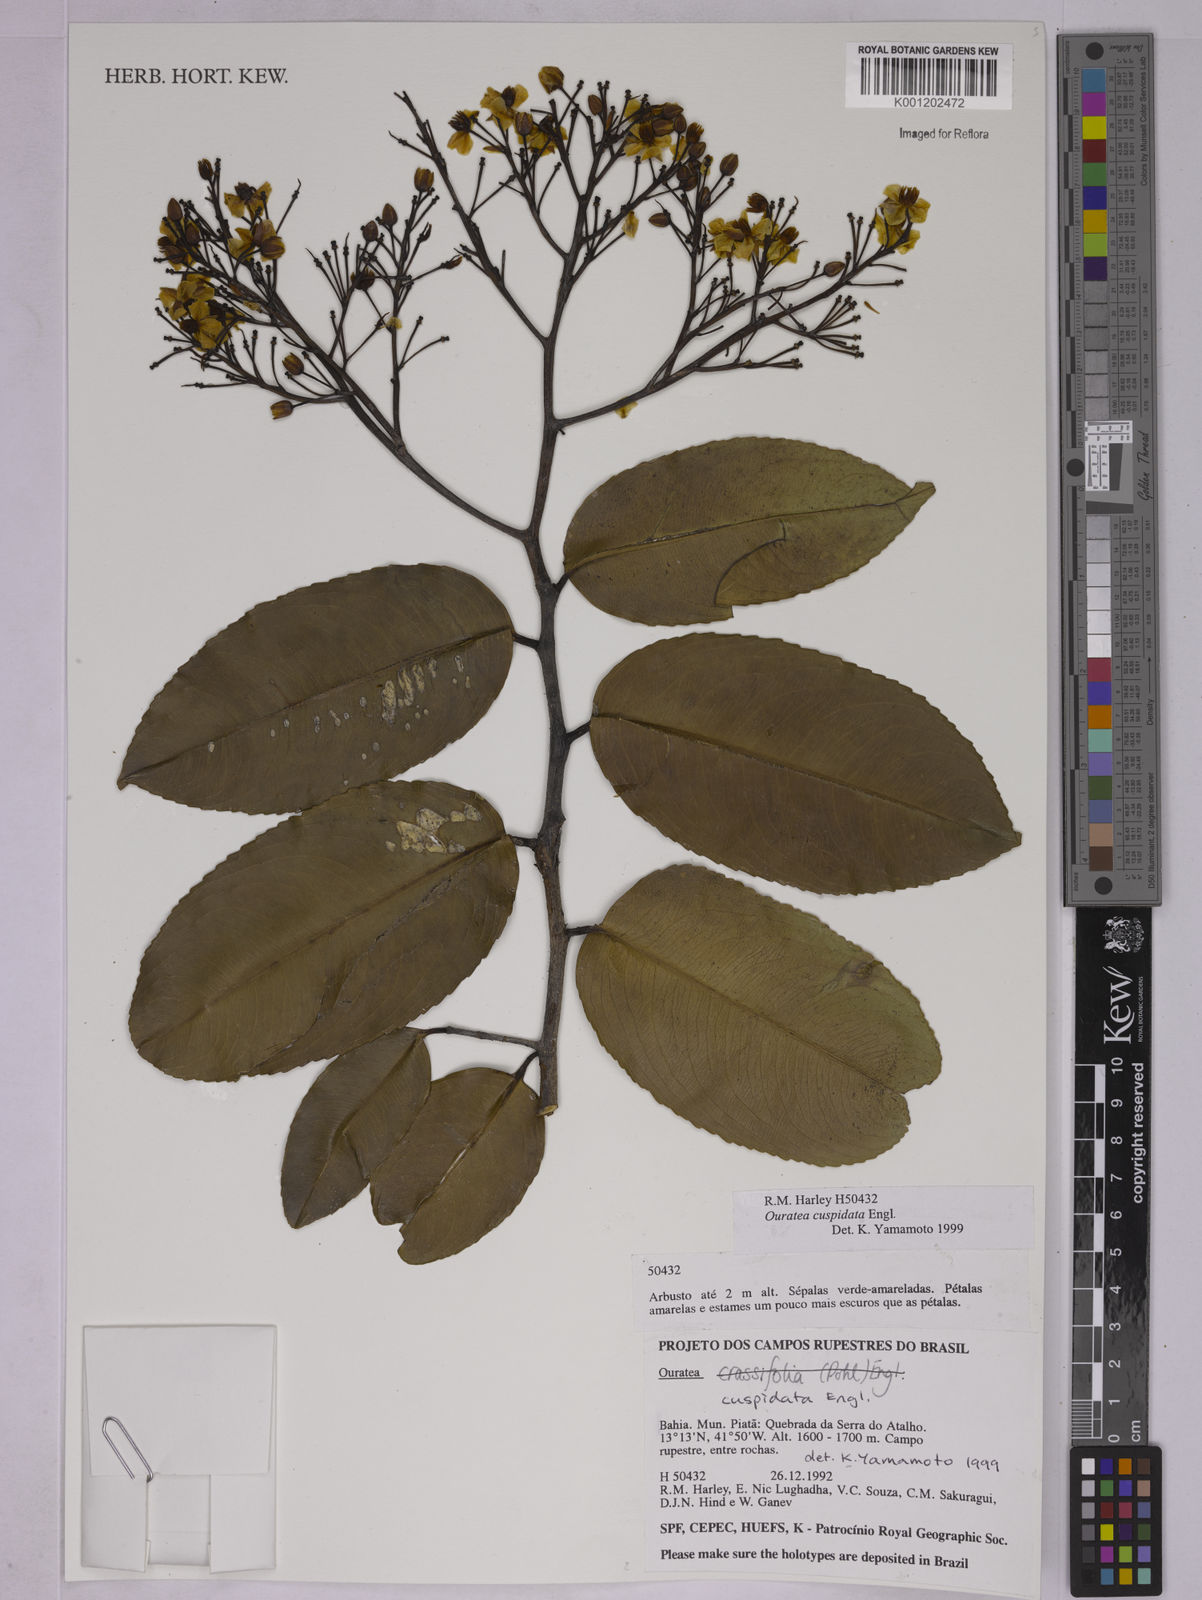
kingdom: Plantae
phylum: Tracheophyta
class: Magnoliopsida
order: Malpighiales
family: Ochnaceae
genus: Ouratea
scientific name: Ouratea cuspidata
